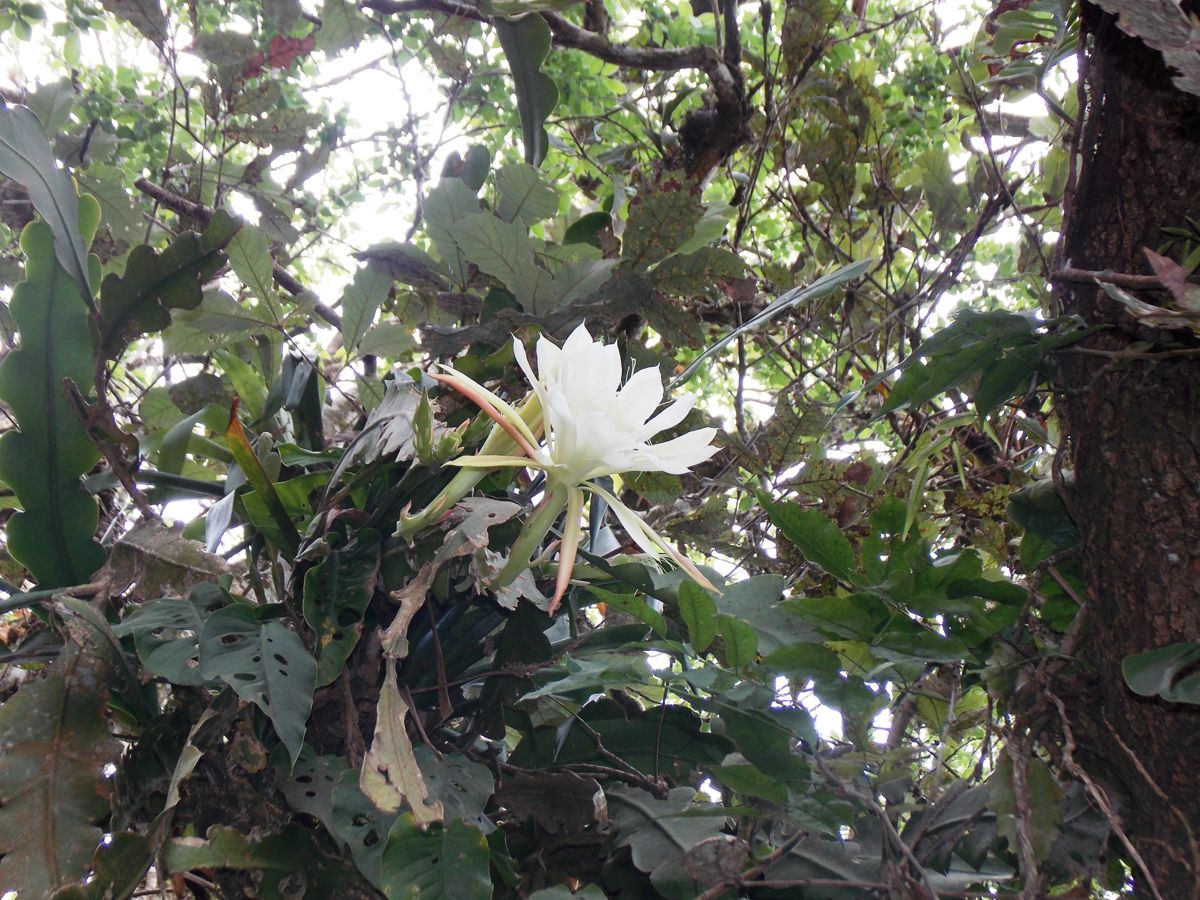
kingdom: Plantae
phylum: Tracheophyta
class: Magnoliopsida
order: Caryophyllales
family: Cactaceae
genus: Disocactus
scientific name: Disocactus crenatus
